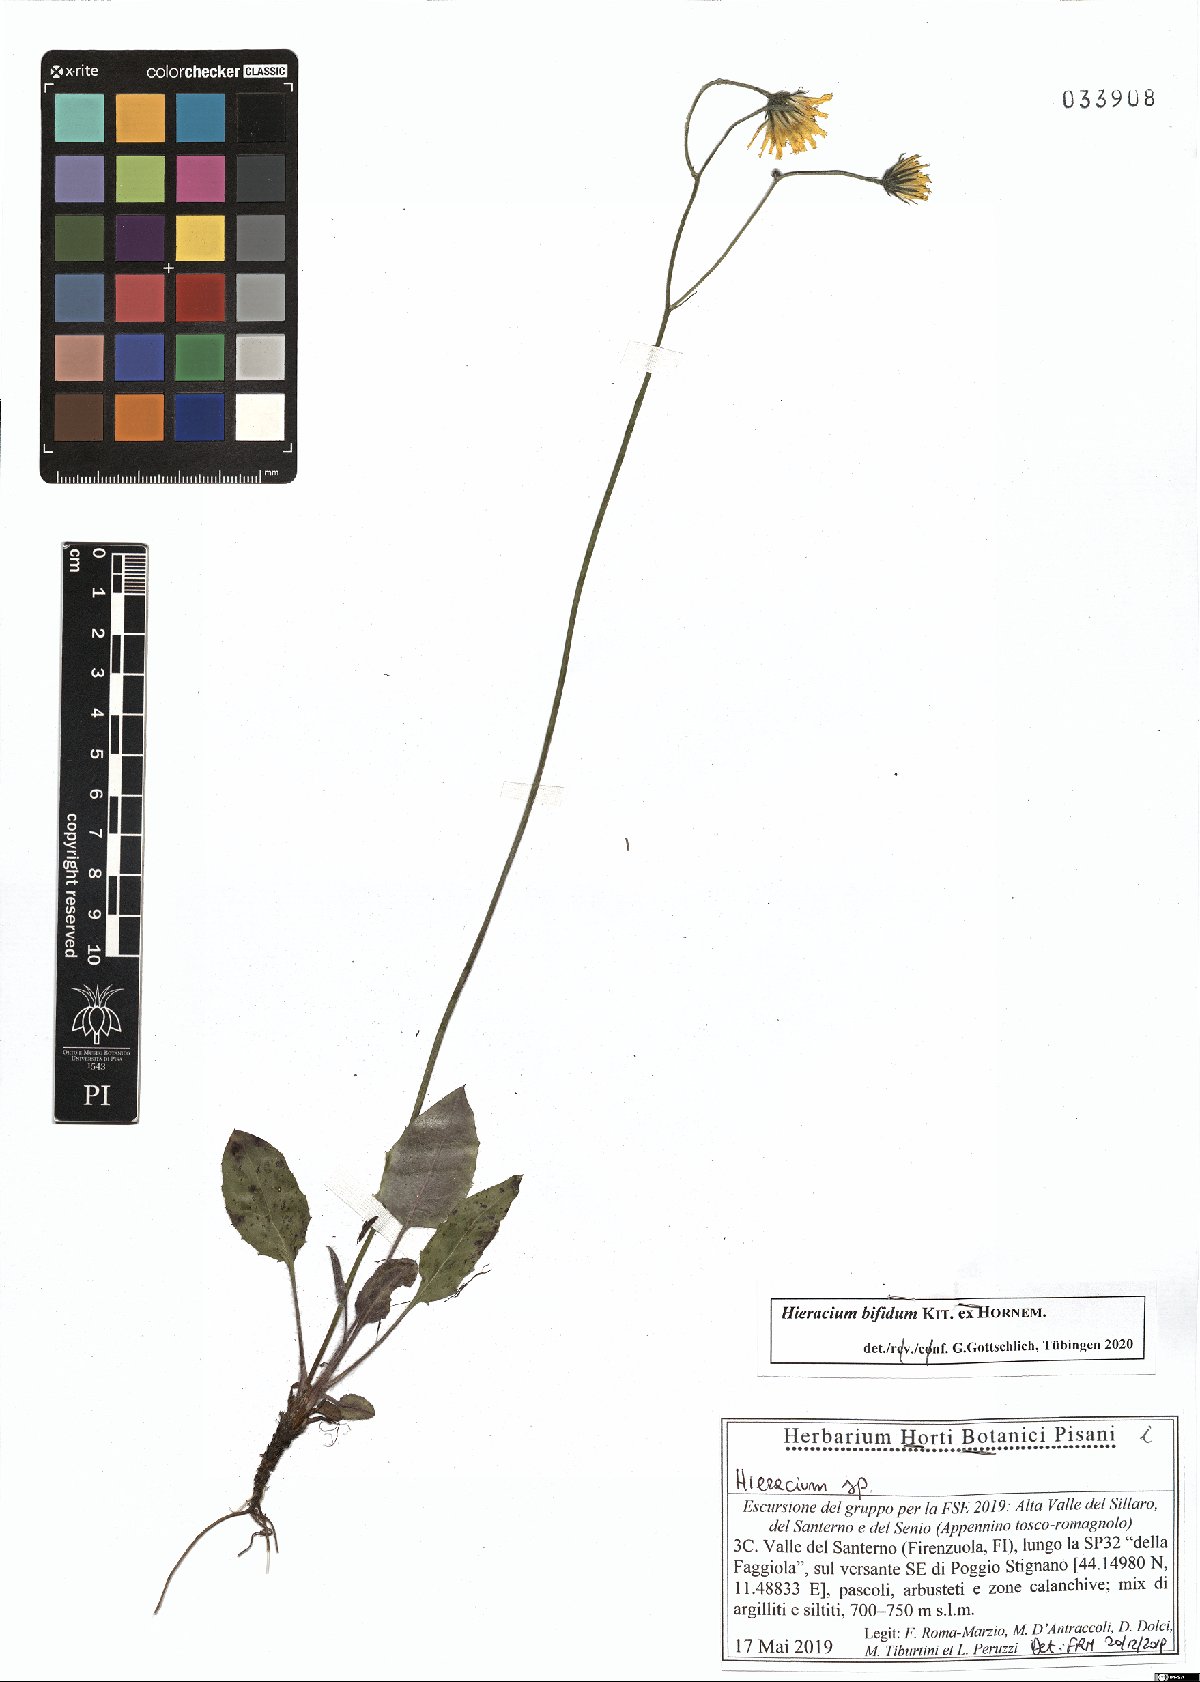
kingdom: Plantae
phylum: Tracheophyta
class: Magnoliopsida
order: Asterales
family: Asteraceae
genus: Hieracium
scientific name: Hieracium bifidum
